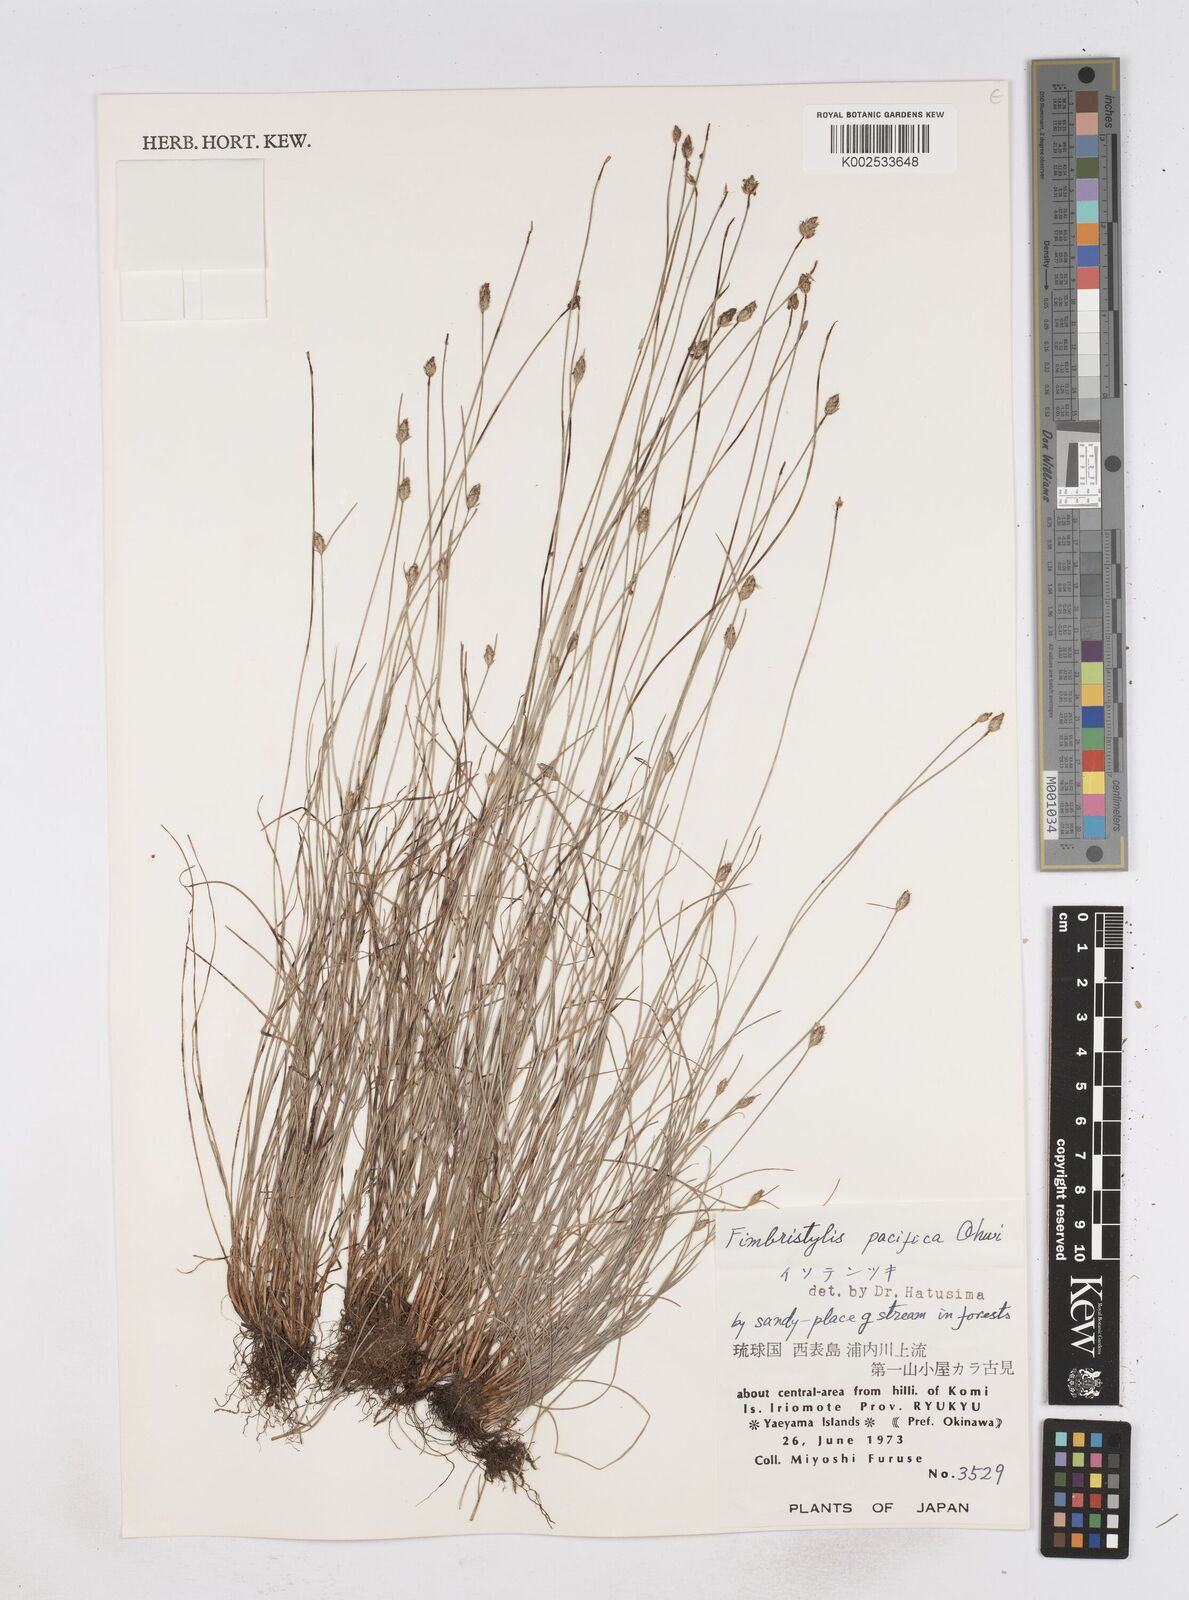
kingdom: Plantae
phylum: Tracheophyta
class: Liliopsida
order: Poales
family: Cyperaceae
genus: Fimbristylis
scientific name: Fimbristylis tristachya
